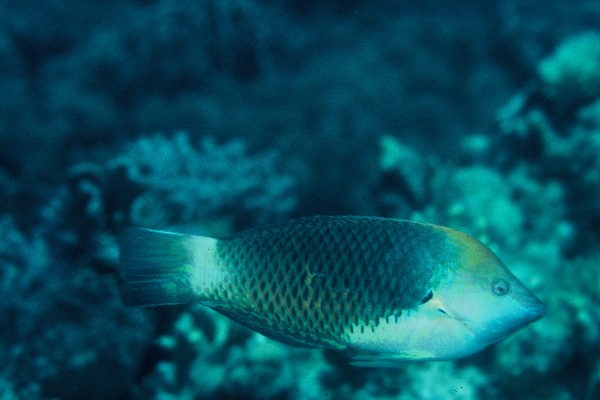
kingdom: Animalia
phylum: Chordata
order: Perciformes
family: Labridae
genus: Halichoeres
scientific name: Halichoeres podostigma
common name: Axil spot wrasse
